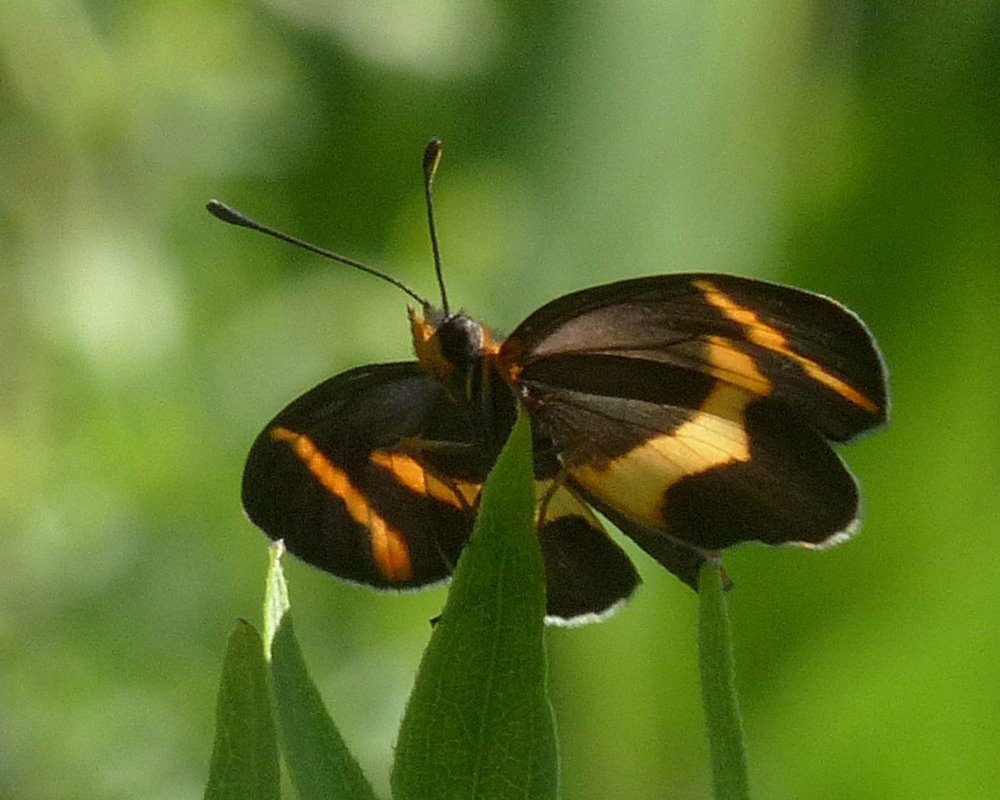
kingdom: Animalia
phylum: Arthropoda
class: Insecta
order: Lepidoptera
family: Nymphalidae
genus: Microtia
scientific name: Microtia elva
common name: Elf
